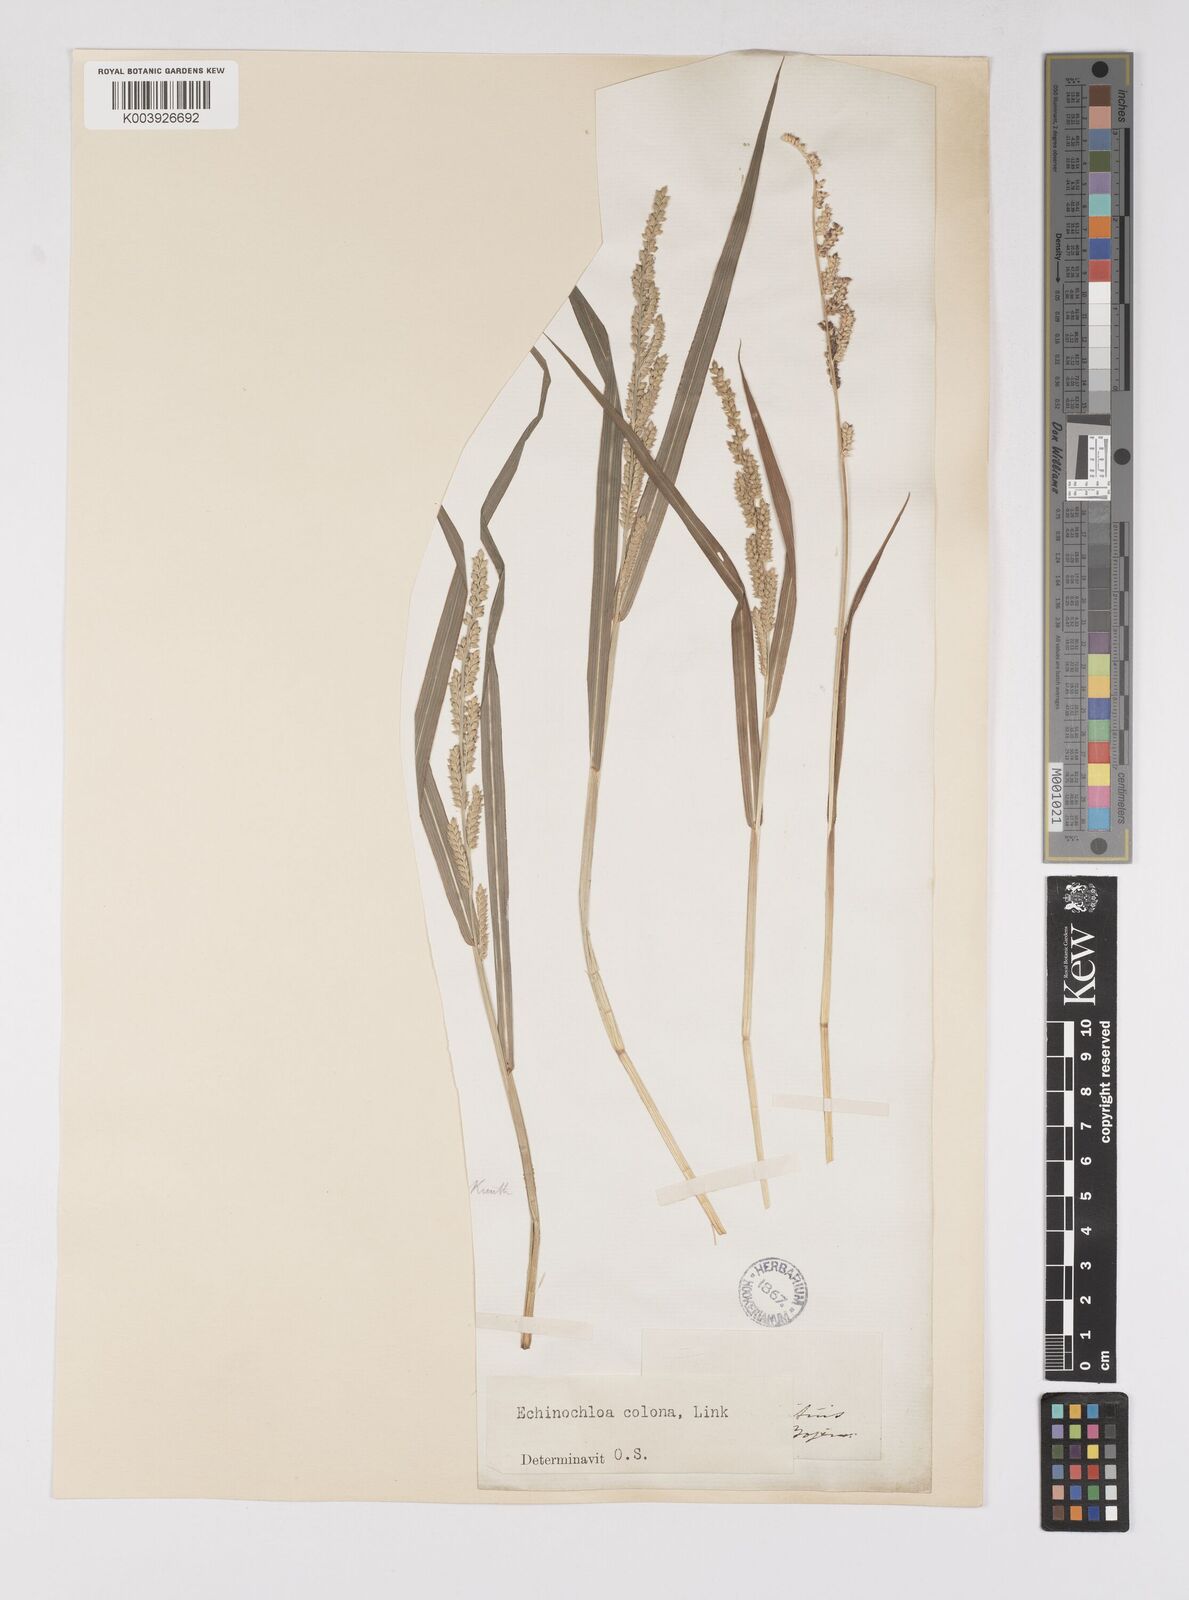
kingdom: Plantae
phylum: Tracheophyta
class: Liliopsida
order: Poales
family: Poaceae
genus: Echinochloa
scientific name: Echinochloa colonum
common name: Jungle rice
